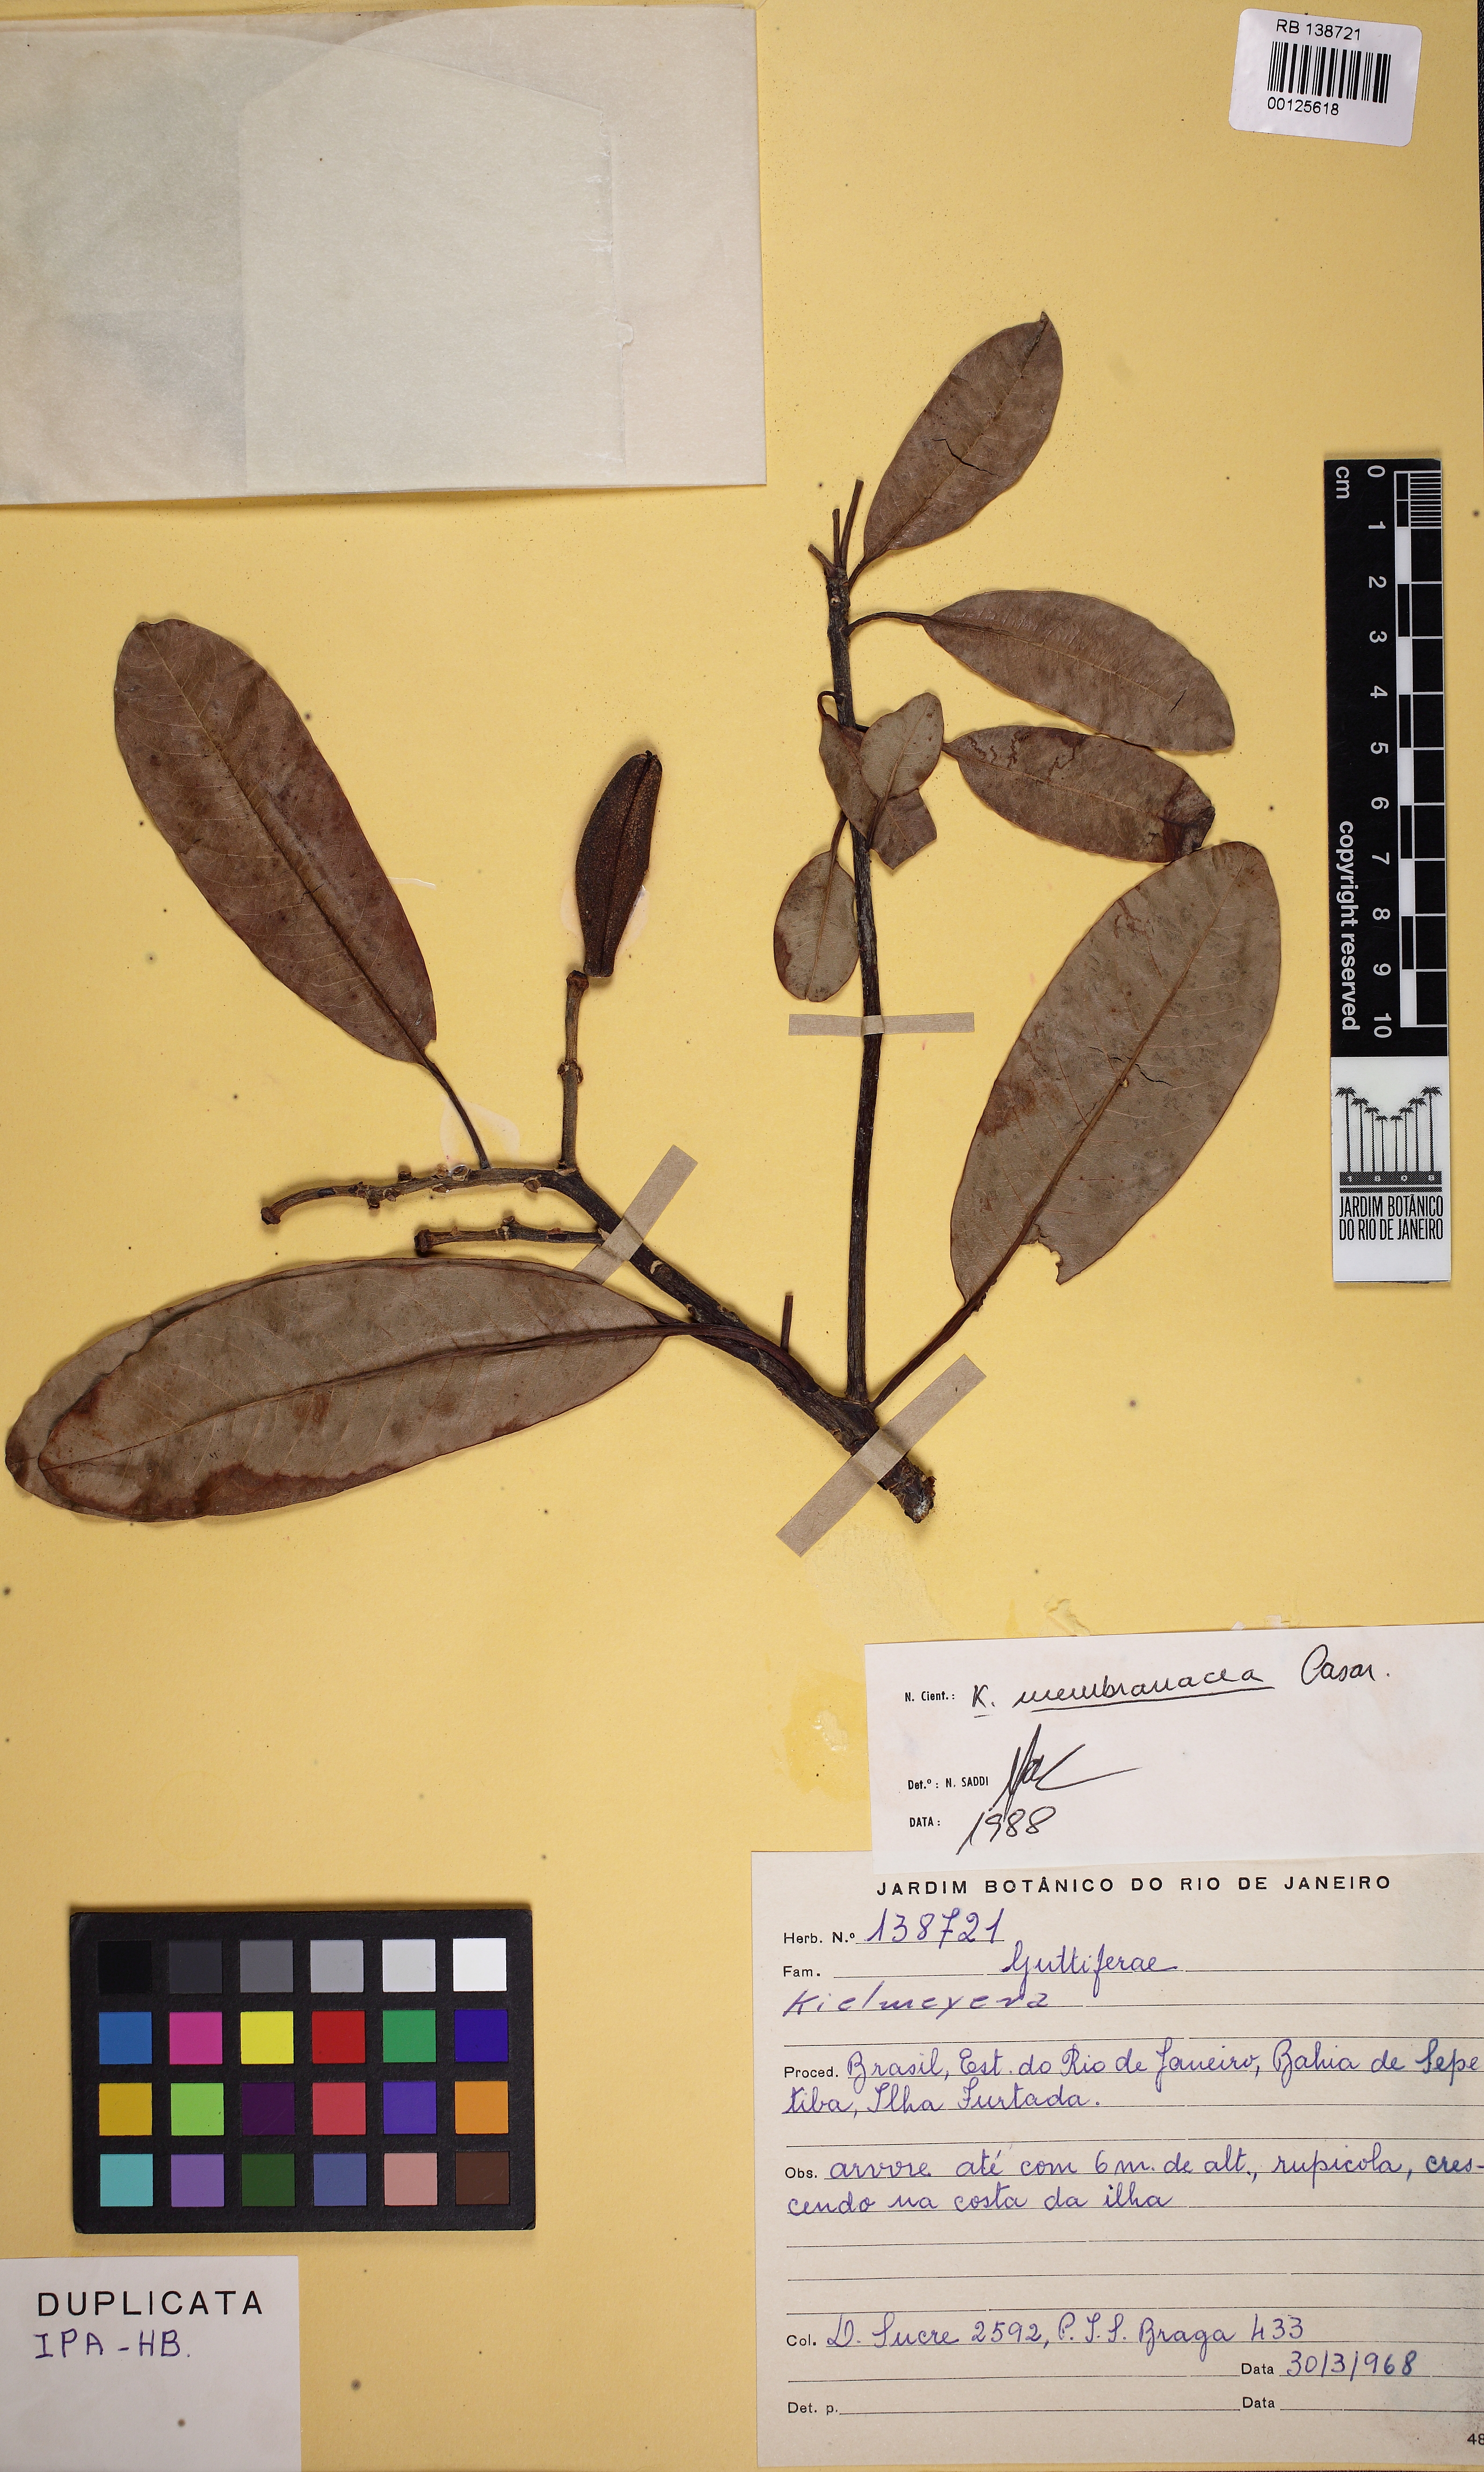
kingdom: Plantae
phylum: Tracheophyta
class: Magnoliopsida
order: Malpighiales
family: Calophyllaceae
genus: Kielmeyera
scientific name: Kielmeyera membranacea
